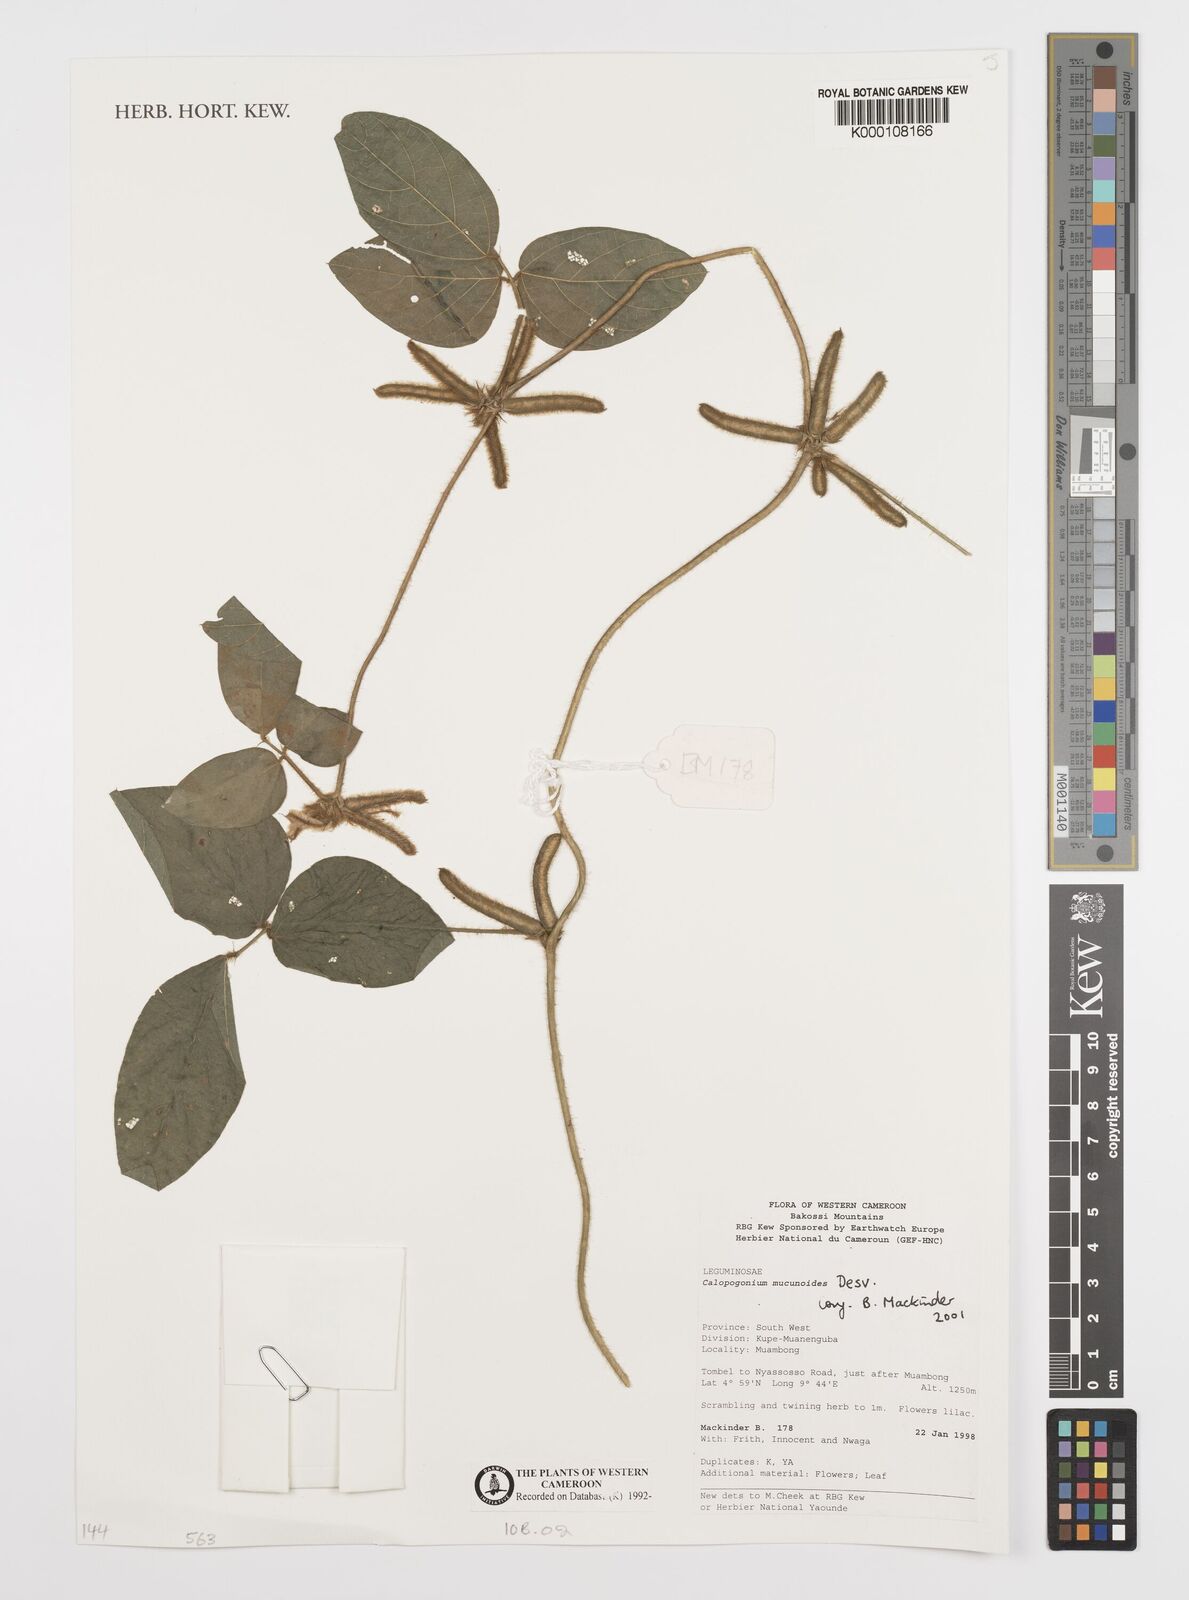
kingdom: Plantae
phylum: Tracheophyta
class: Magnoliopsida
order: Fabales
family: Fabaceae
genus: Calopogonium
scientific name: Calopogonium mucunoides
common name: Calopo
